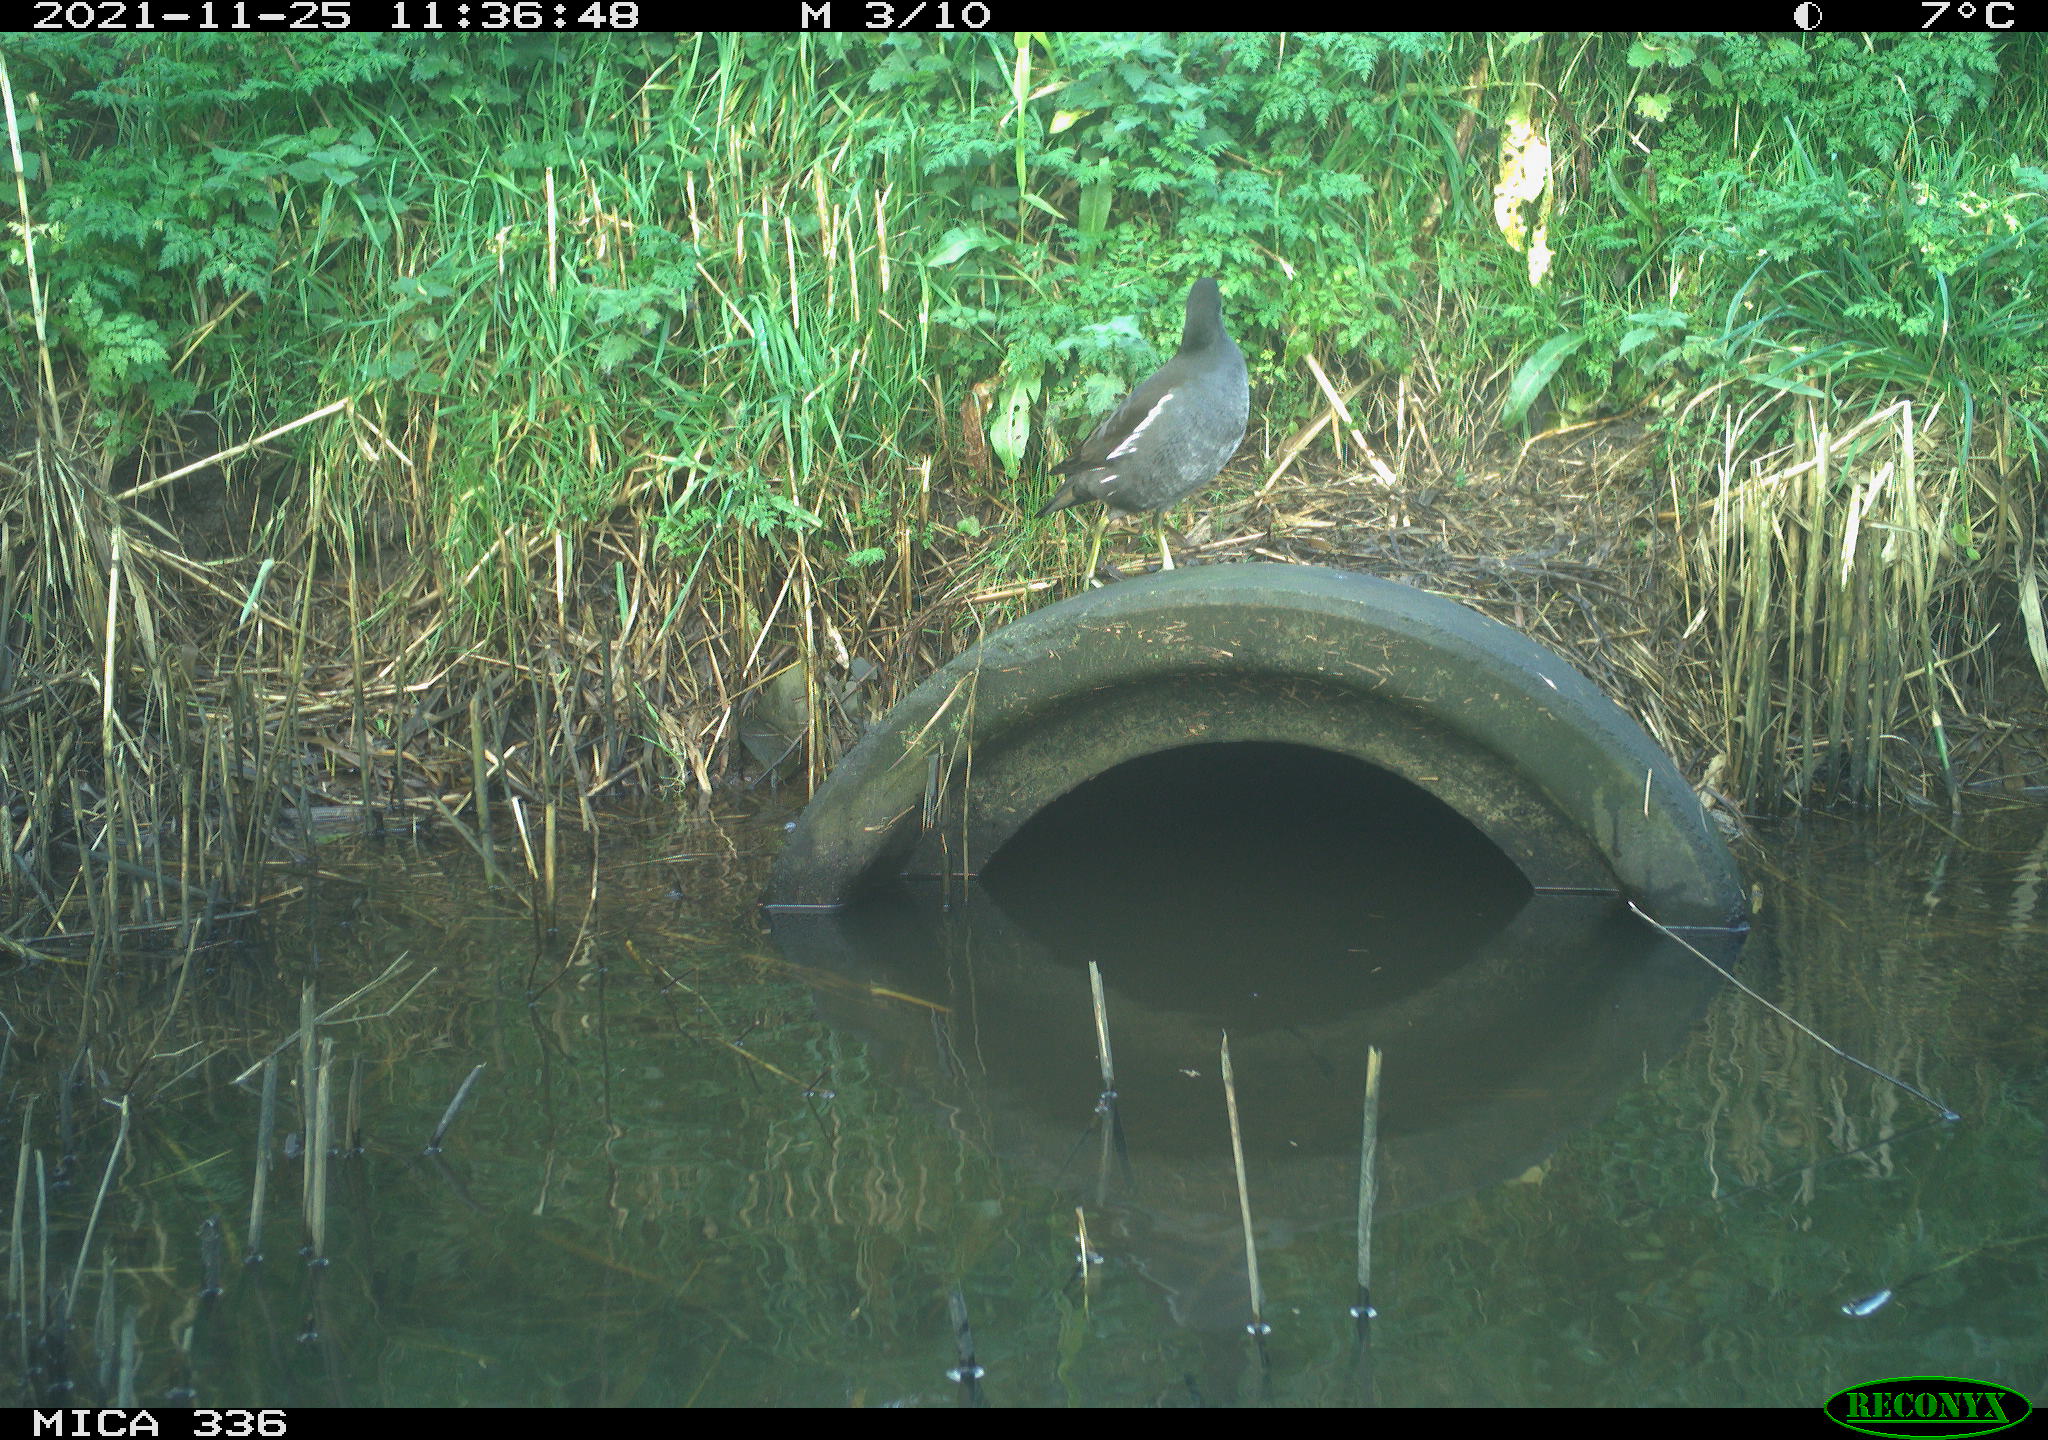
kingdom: Animalia
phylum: Chordata
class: Aves
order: Gruiformes
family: Rallidae
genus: Gallinula
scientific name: Gallinula chloropus
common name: Common moorhen
